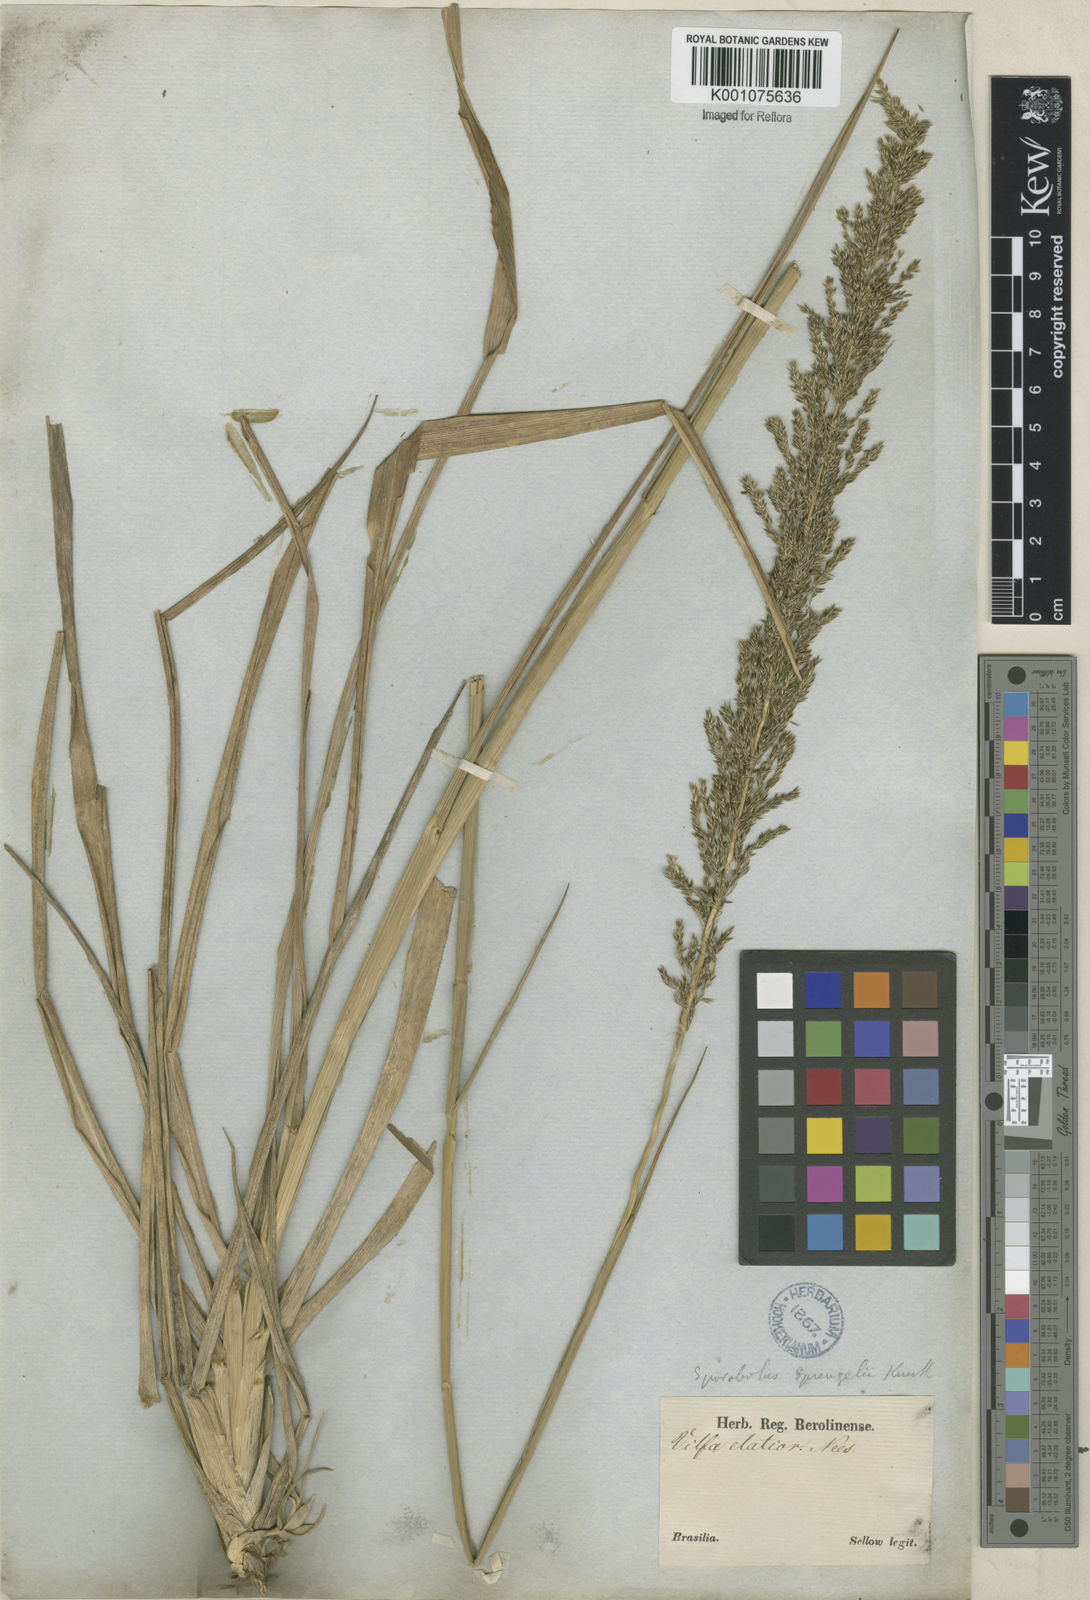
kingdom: Plantae
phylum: Tracheophyta
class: Liliopsida
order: Poales
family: Poaceae
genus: Sporobolus
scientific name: Sporobolus aeneus
